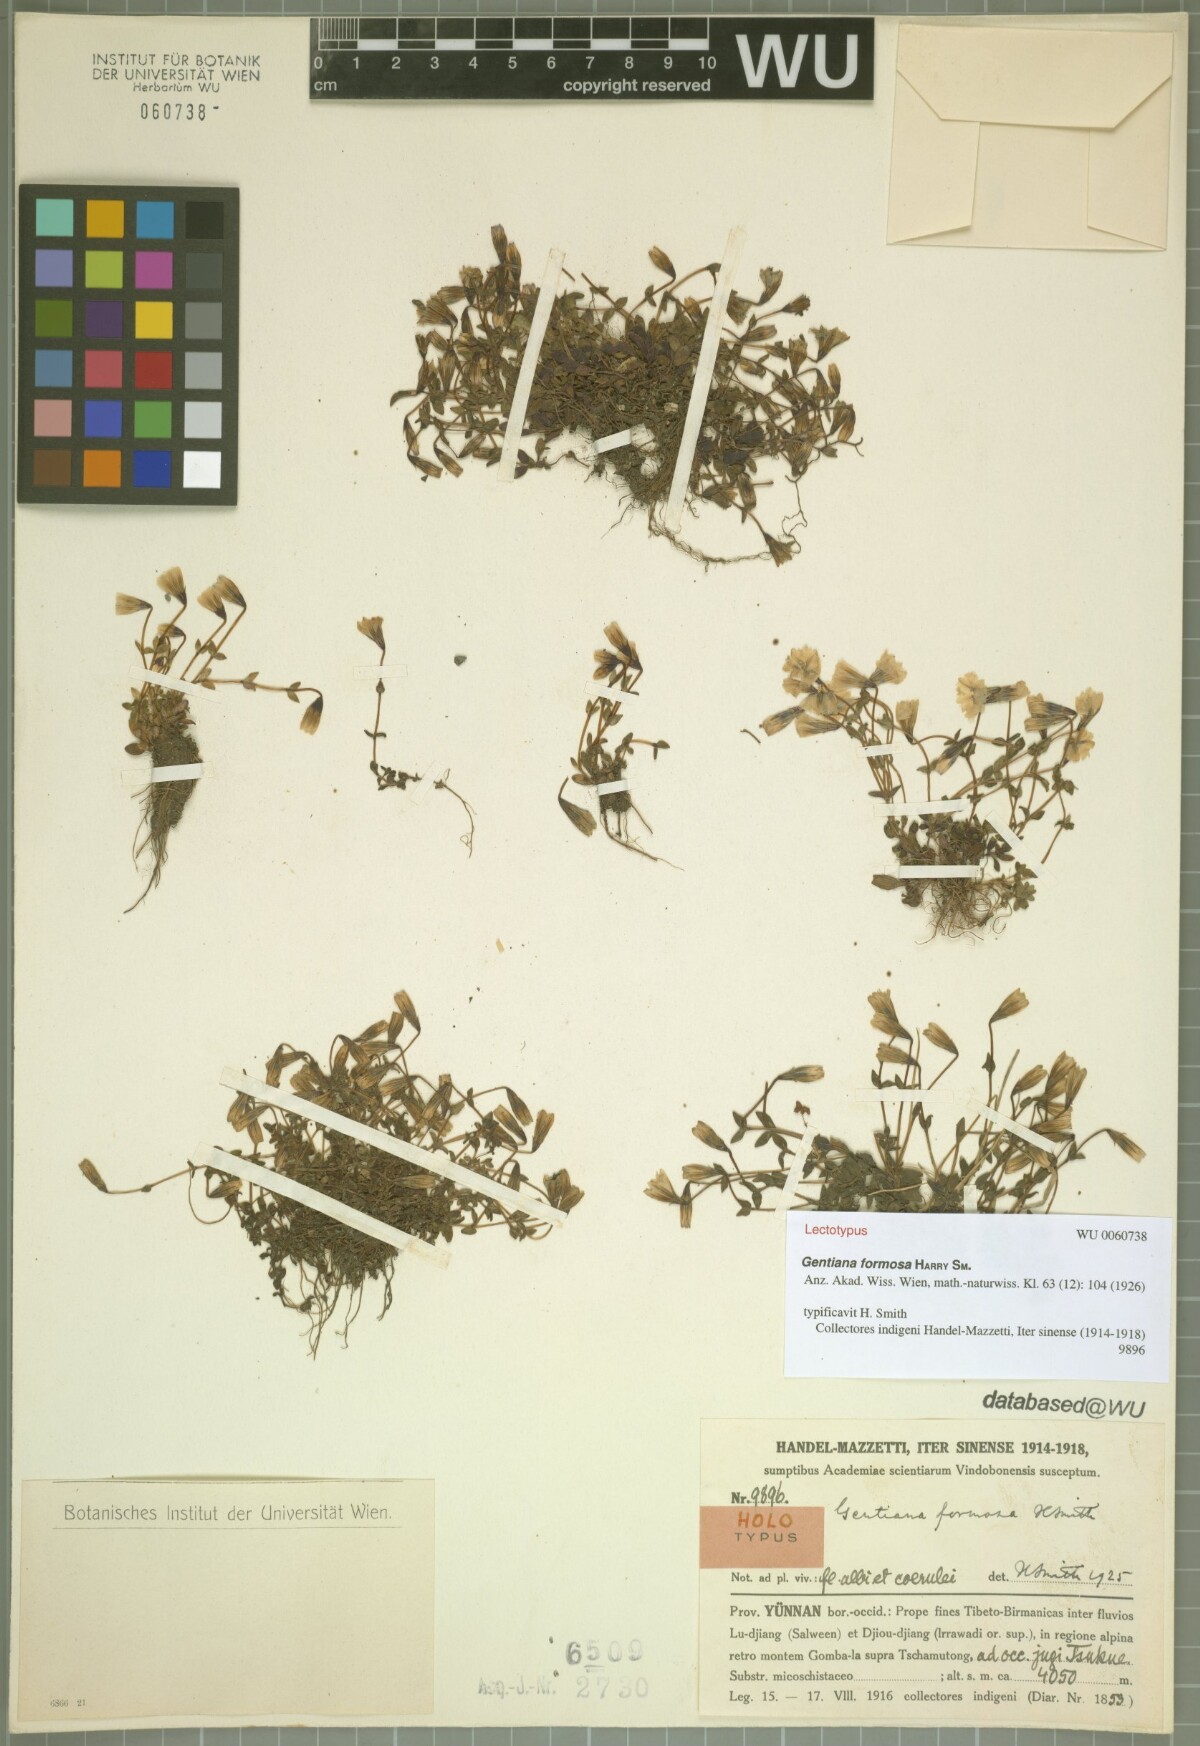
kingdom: Plantae
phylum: Tracheophyta
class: Magnoliopsida
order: Gentianales
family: Gentianaceae
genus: Gentiana
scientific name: Gentiana formosa
